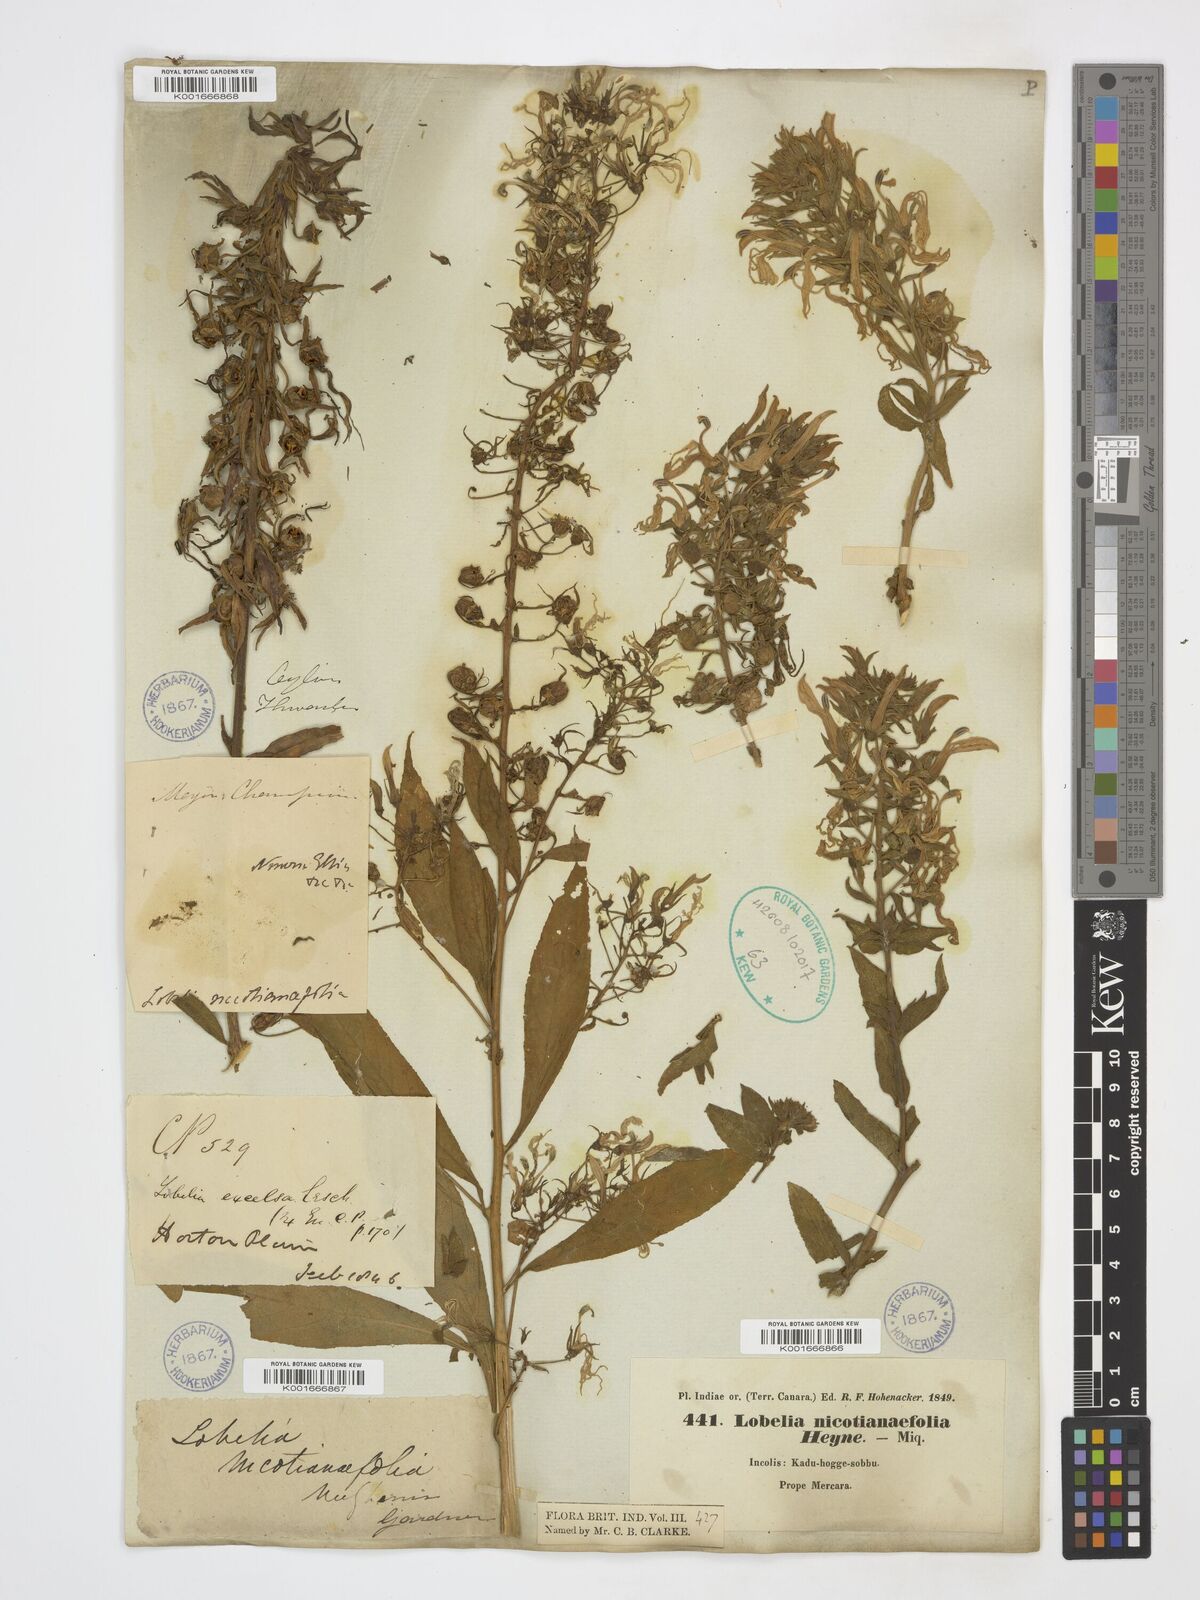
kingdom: Plantae
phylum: Tracheophyta
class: Magnoliopsida
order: Asterales
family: Campanulaceae
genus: Lobelia
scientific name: Lobelia nicotianifolia
